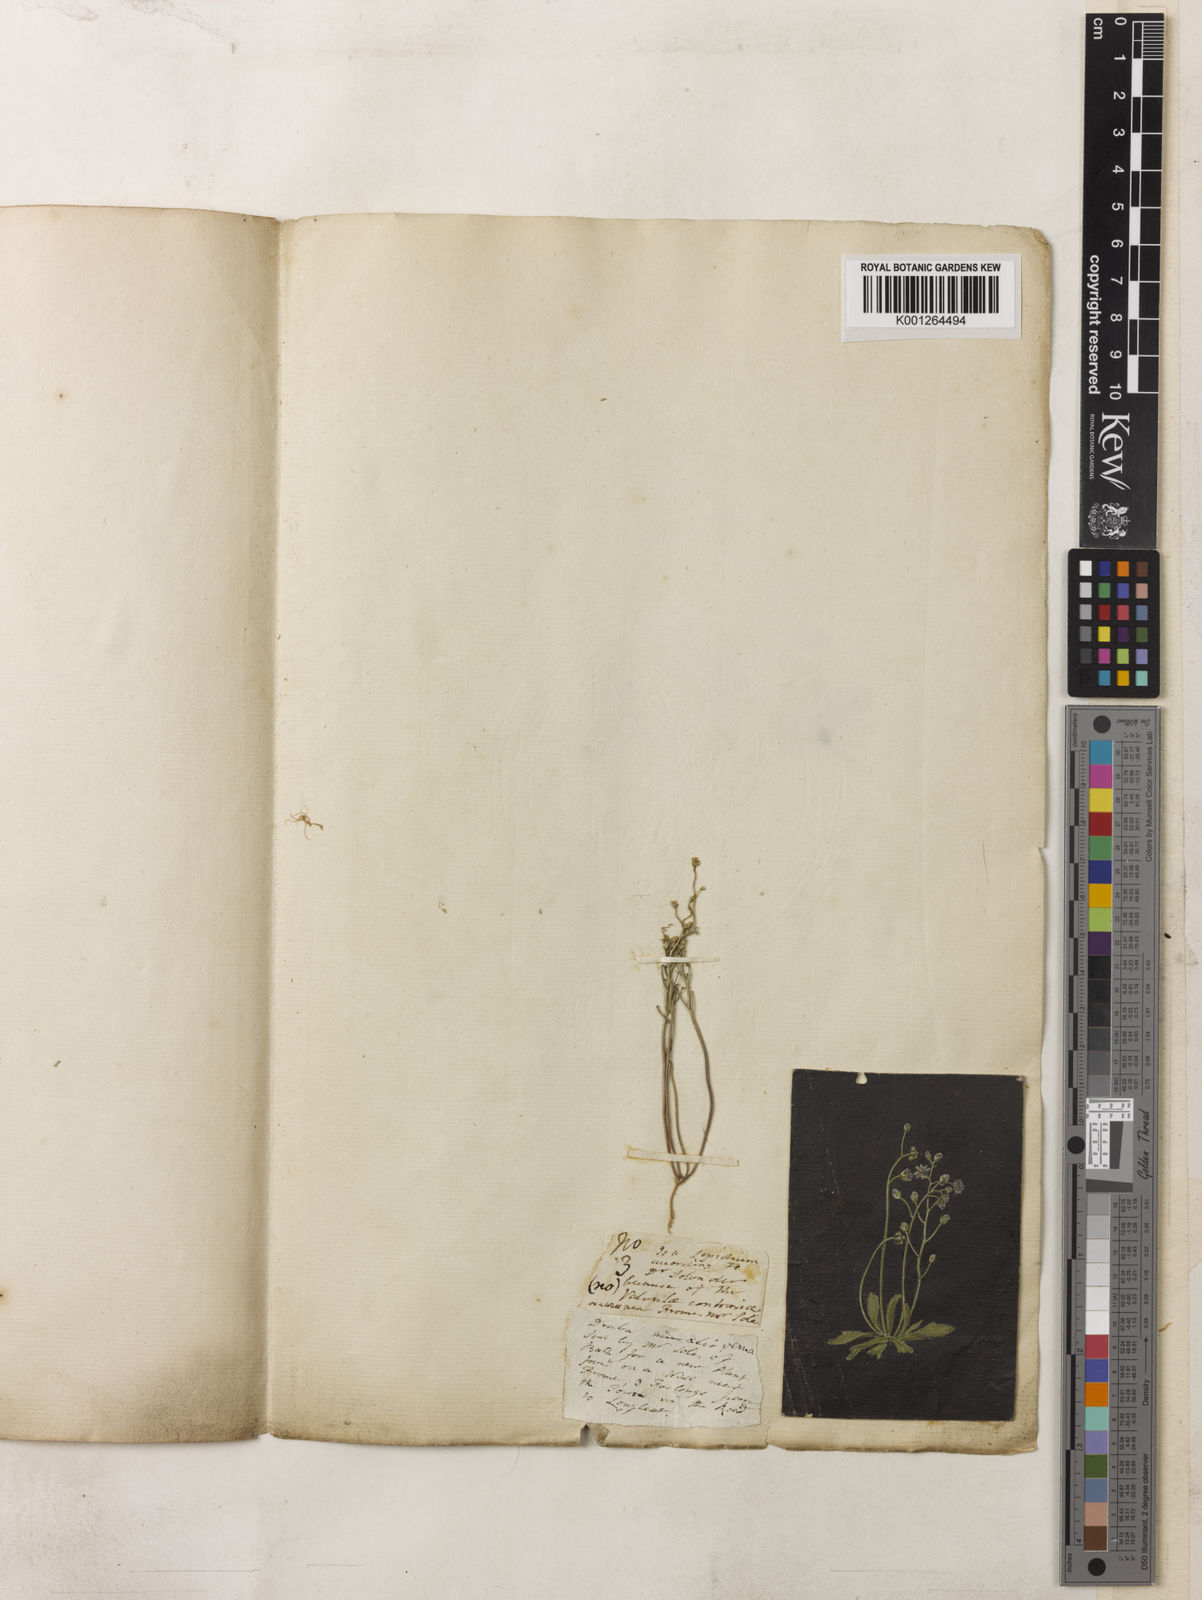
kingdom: Plantae
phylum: Tracheophyta
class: Magnoliopsida
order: Brassicales
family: Brassicaceae
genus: Draba
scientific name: Draba
